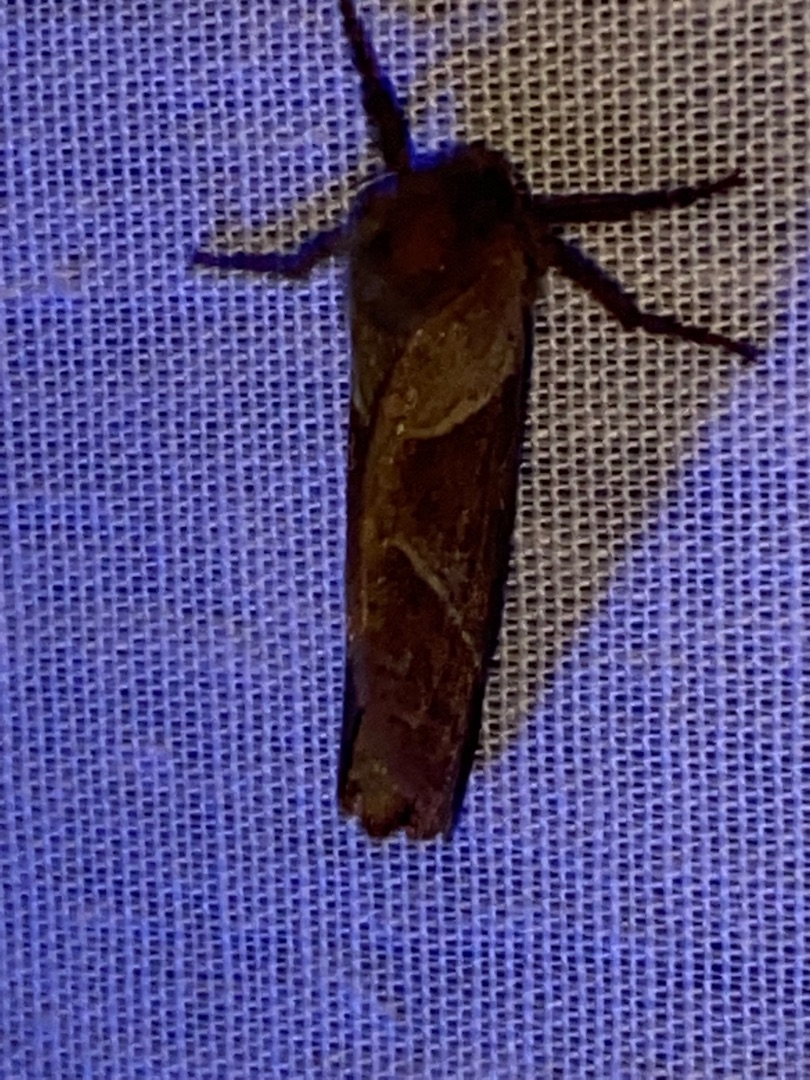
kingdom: Animalia
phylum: Arthropoda
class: Insecta
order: Lepidoptera
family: Hepialidae
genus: Triodia
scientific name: Triodia sylvina
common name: Skræpperodæder
